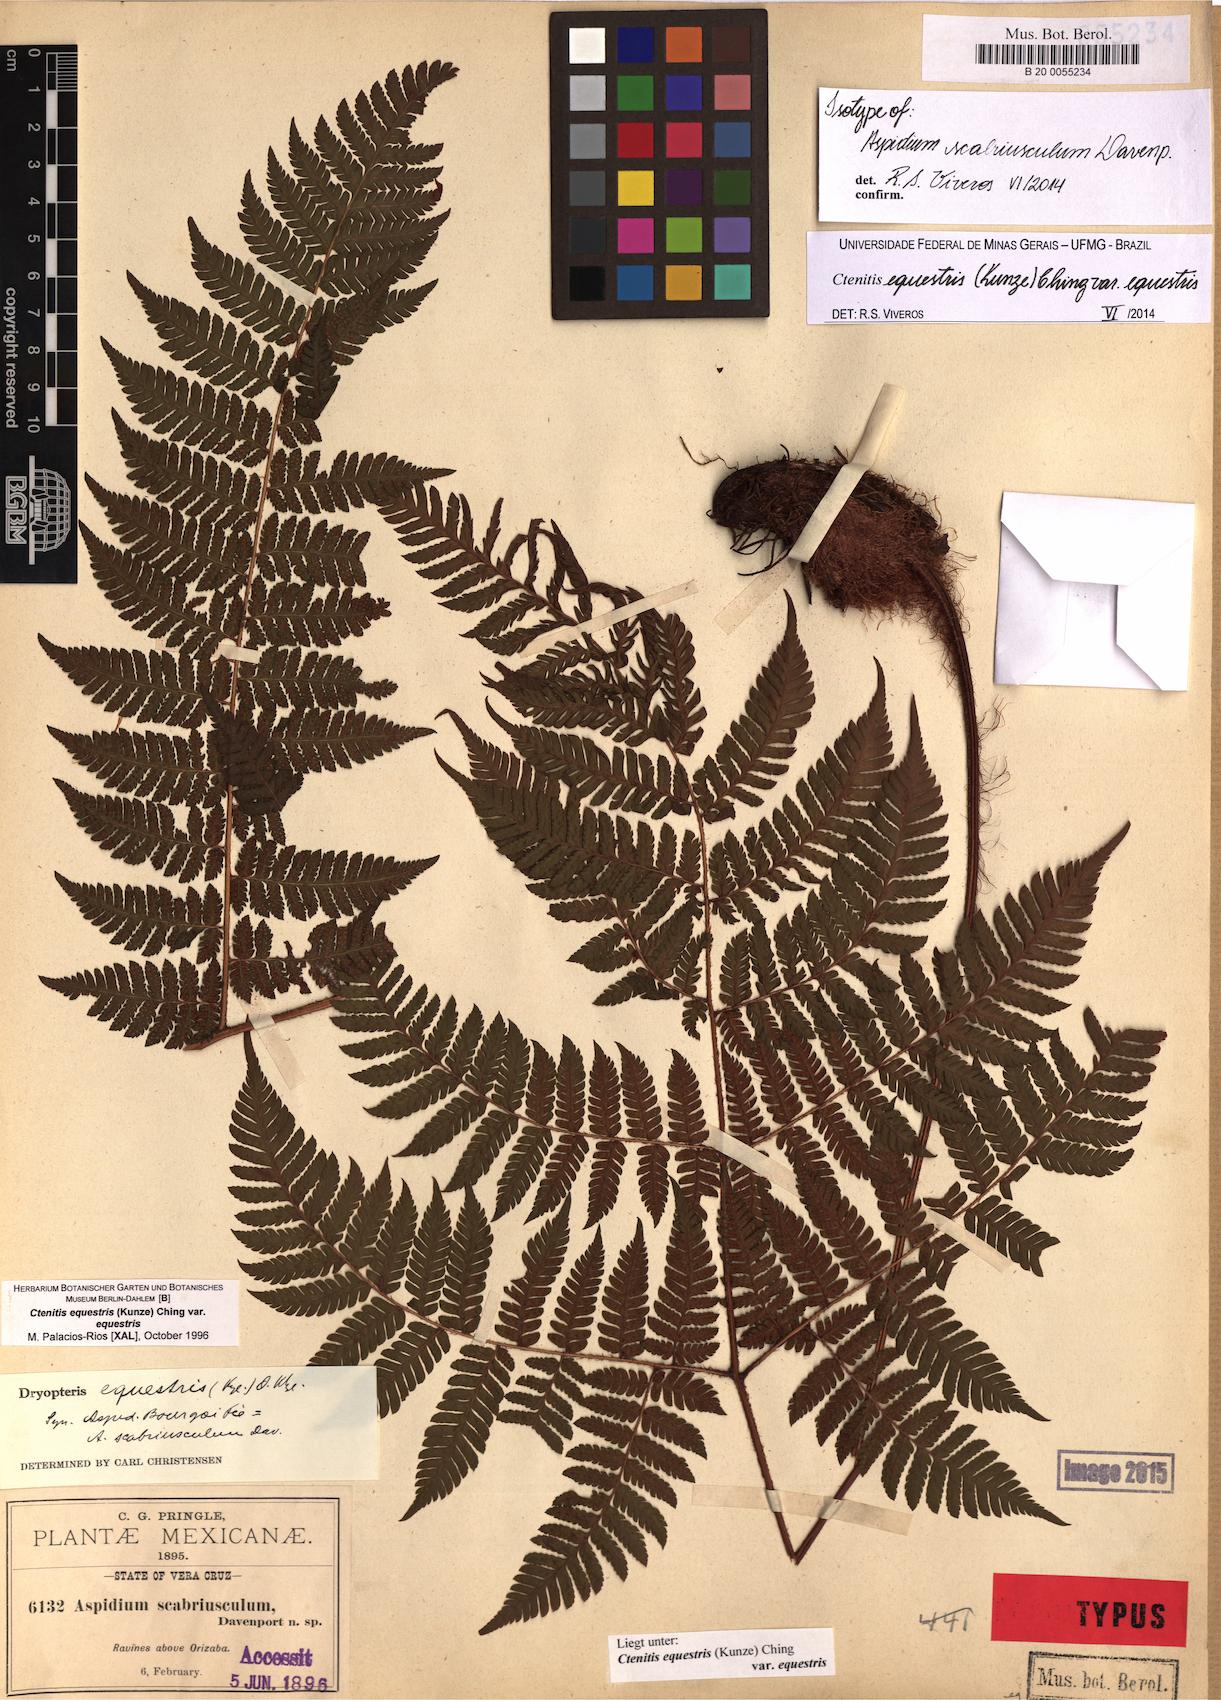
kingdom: Plantae
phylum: Tracheophyta
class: Polypodiopsida
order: Polypodiales
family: Dryopteridaceae
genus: Ctenitis
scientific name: Ctenitis equestris
